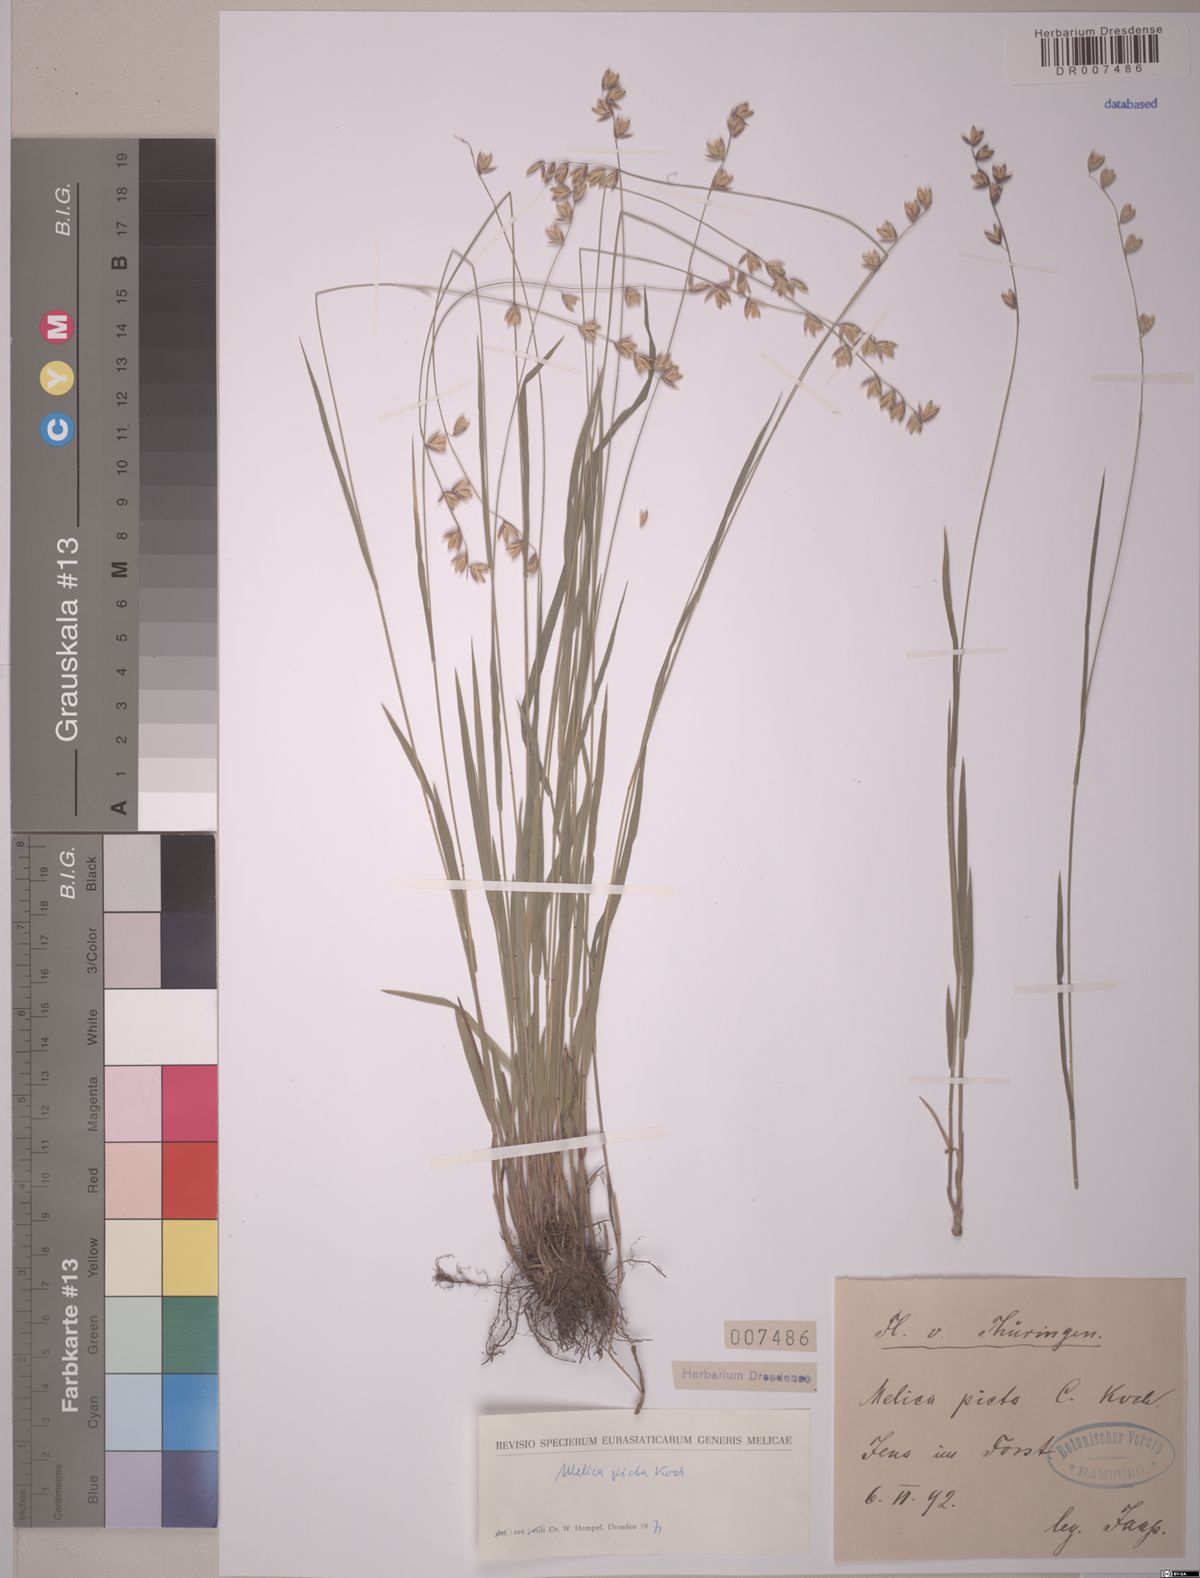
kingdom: Plantae
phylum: Tracheophyta
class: Liliopsida
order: Poales
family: Poaceae
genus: Melica
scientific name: Melica picta
